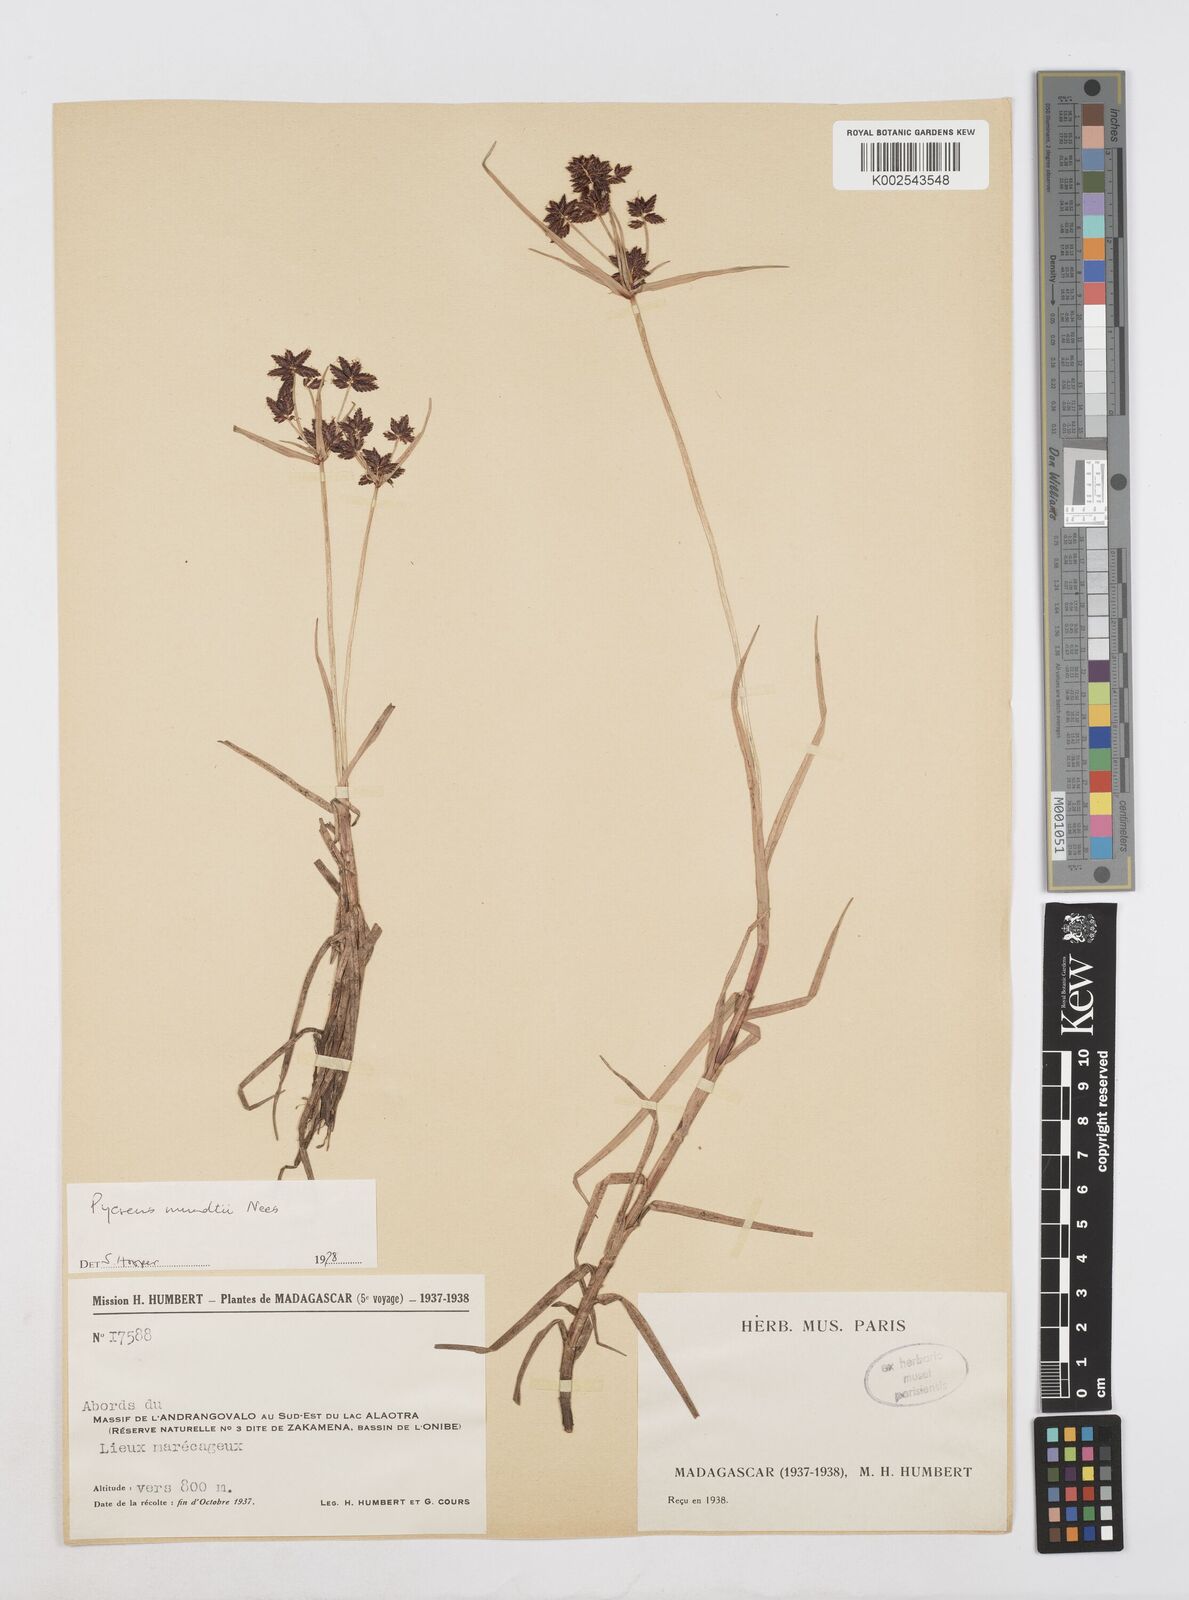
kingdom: Plantae
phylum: Tracheophyta
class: Liliopsida
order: Poales
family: Cyperaceae
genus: Cyperus
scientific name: Cyperus mundii
